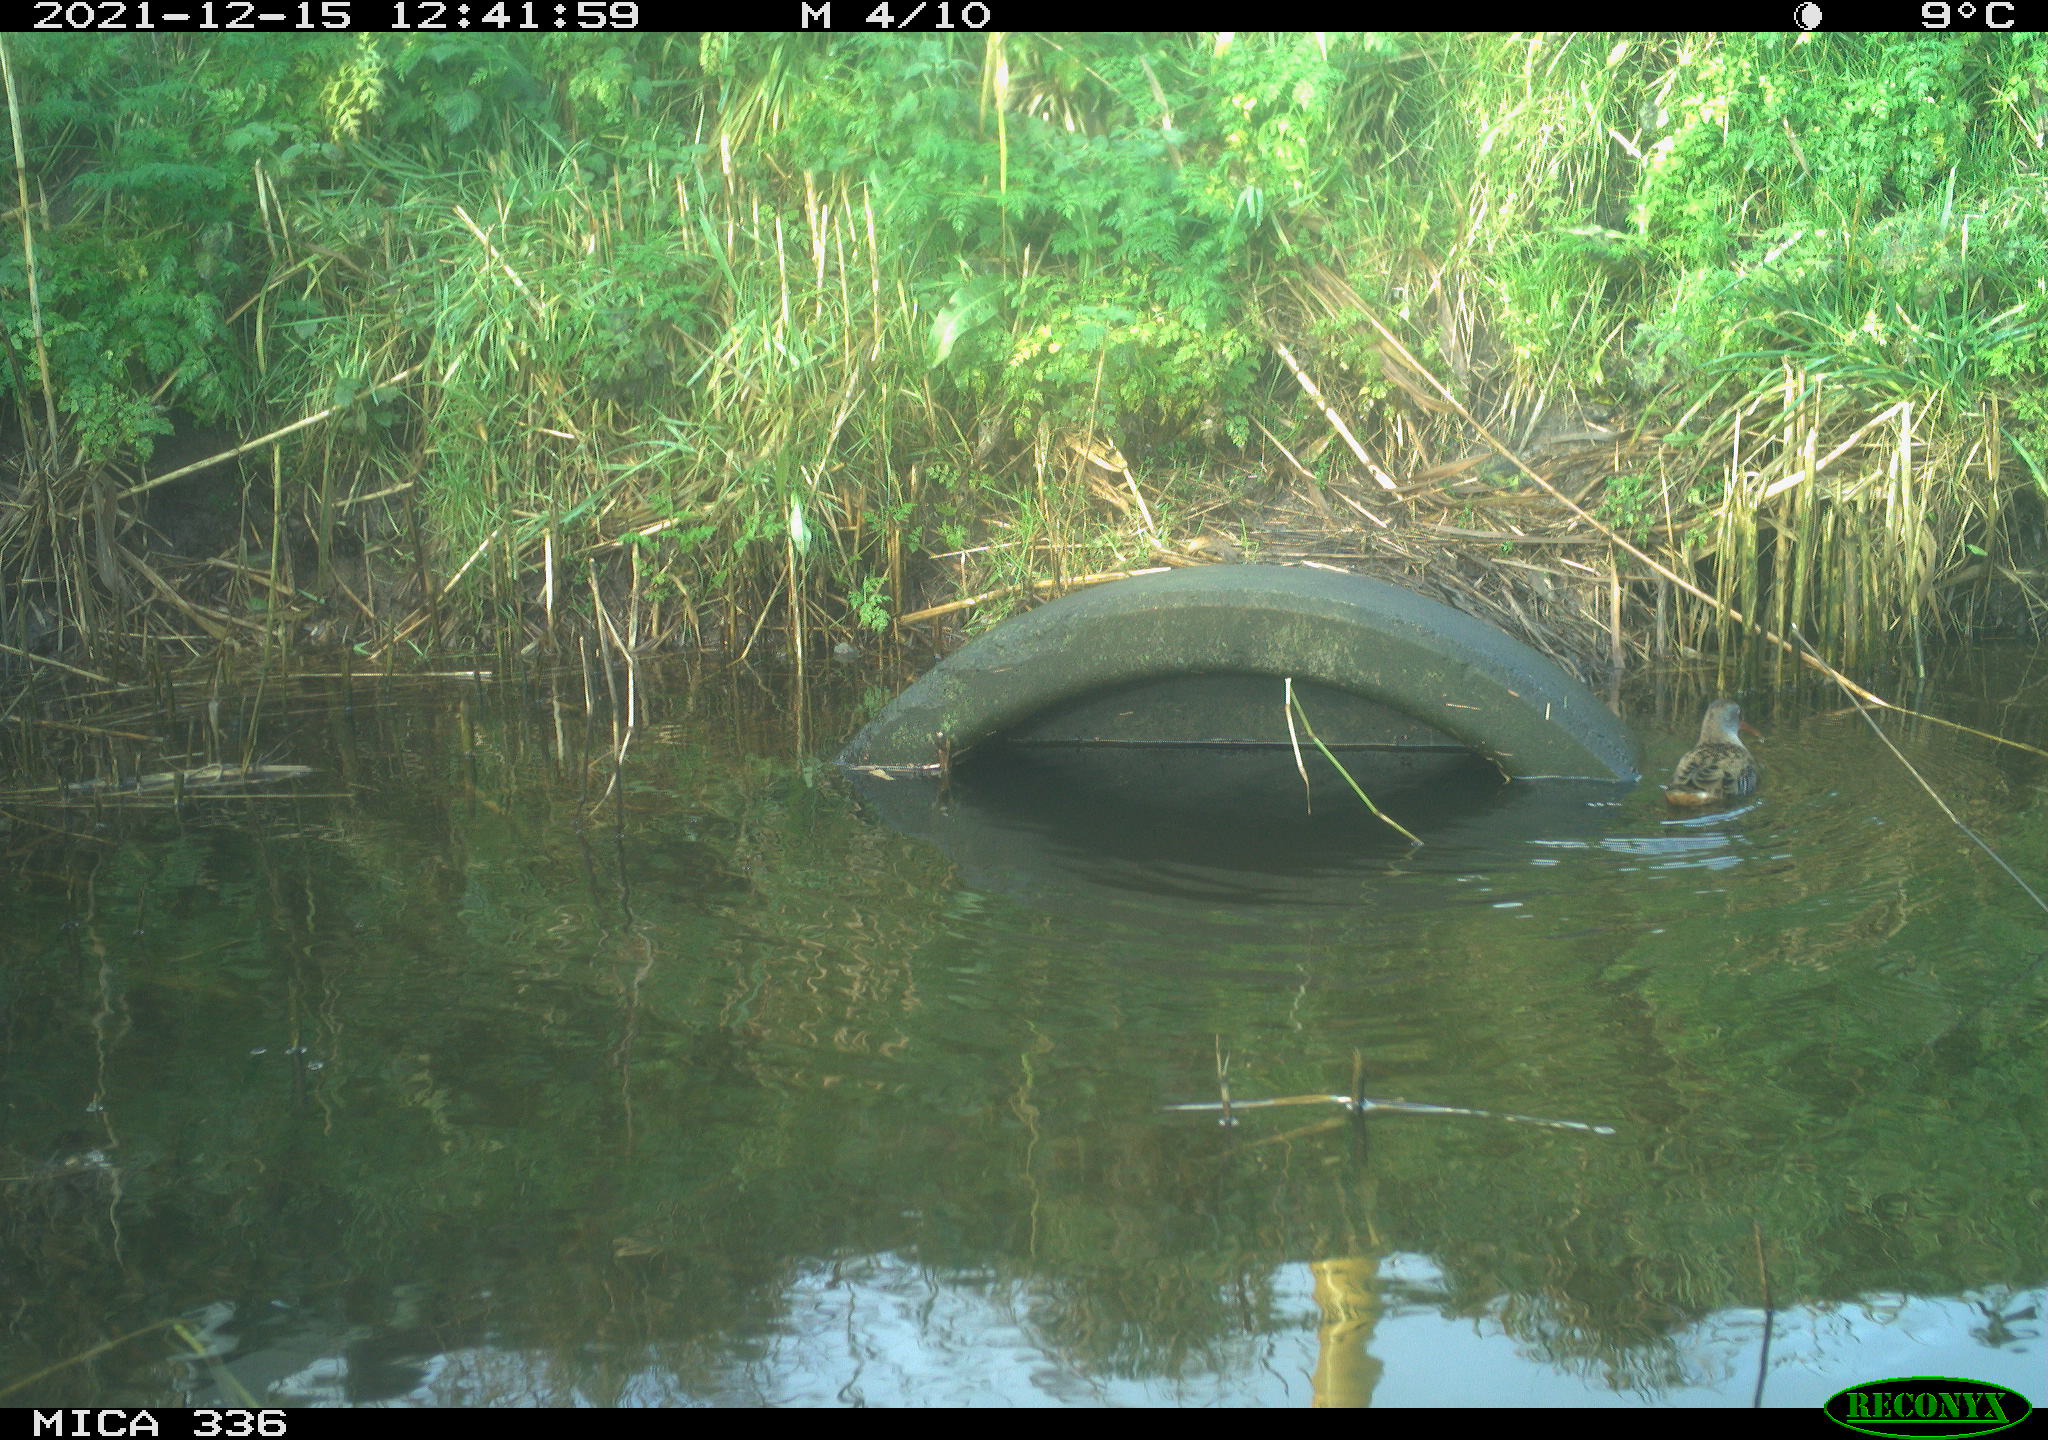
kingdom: Animalia
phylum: Chordata
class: Aves
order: Gruiformes
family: Rallidae
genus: Gallinula
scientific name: Gallinula chloropus
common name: Common moorhen
